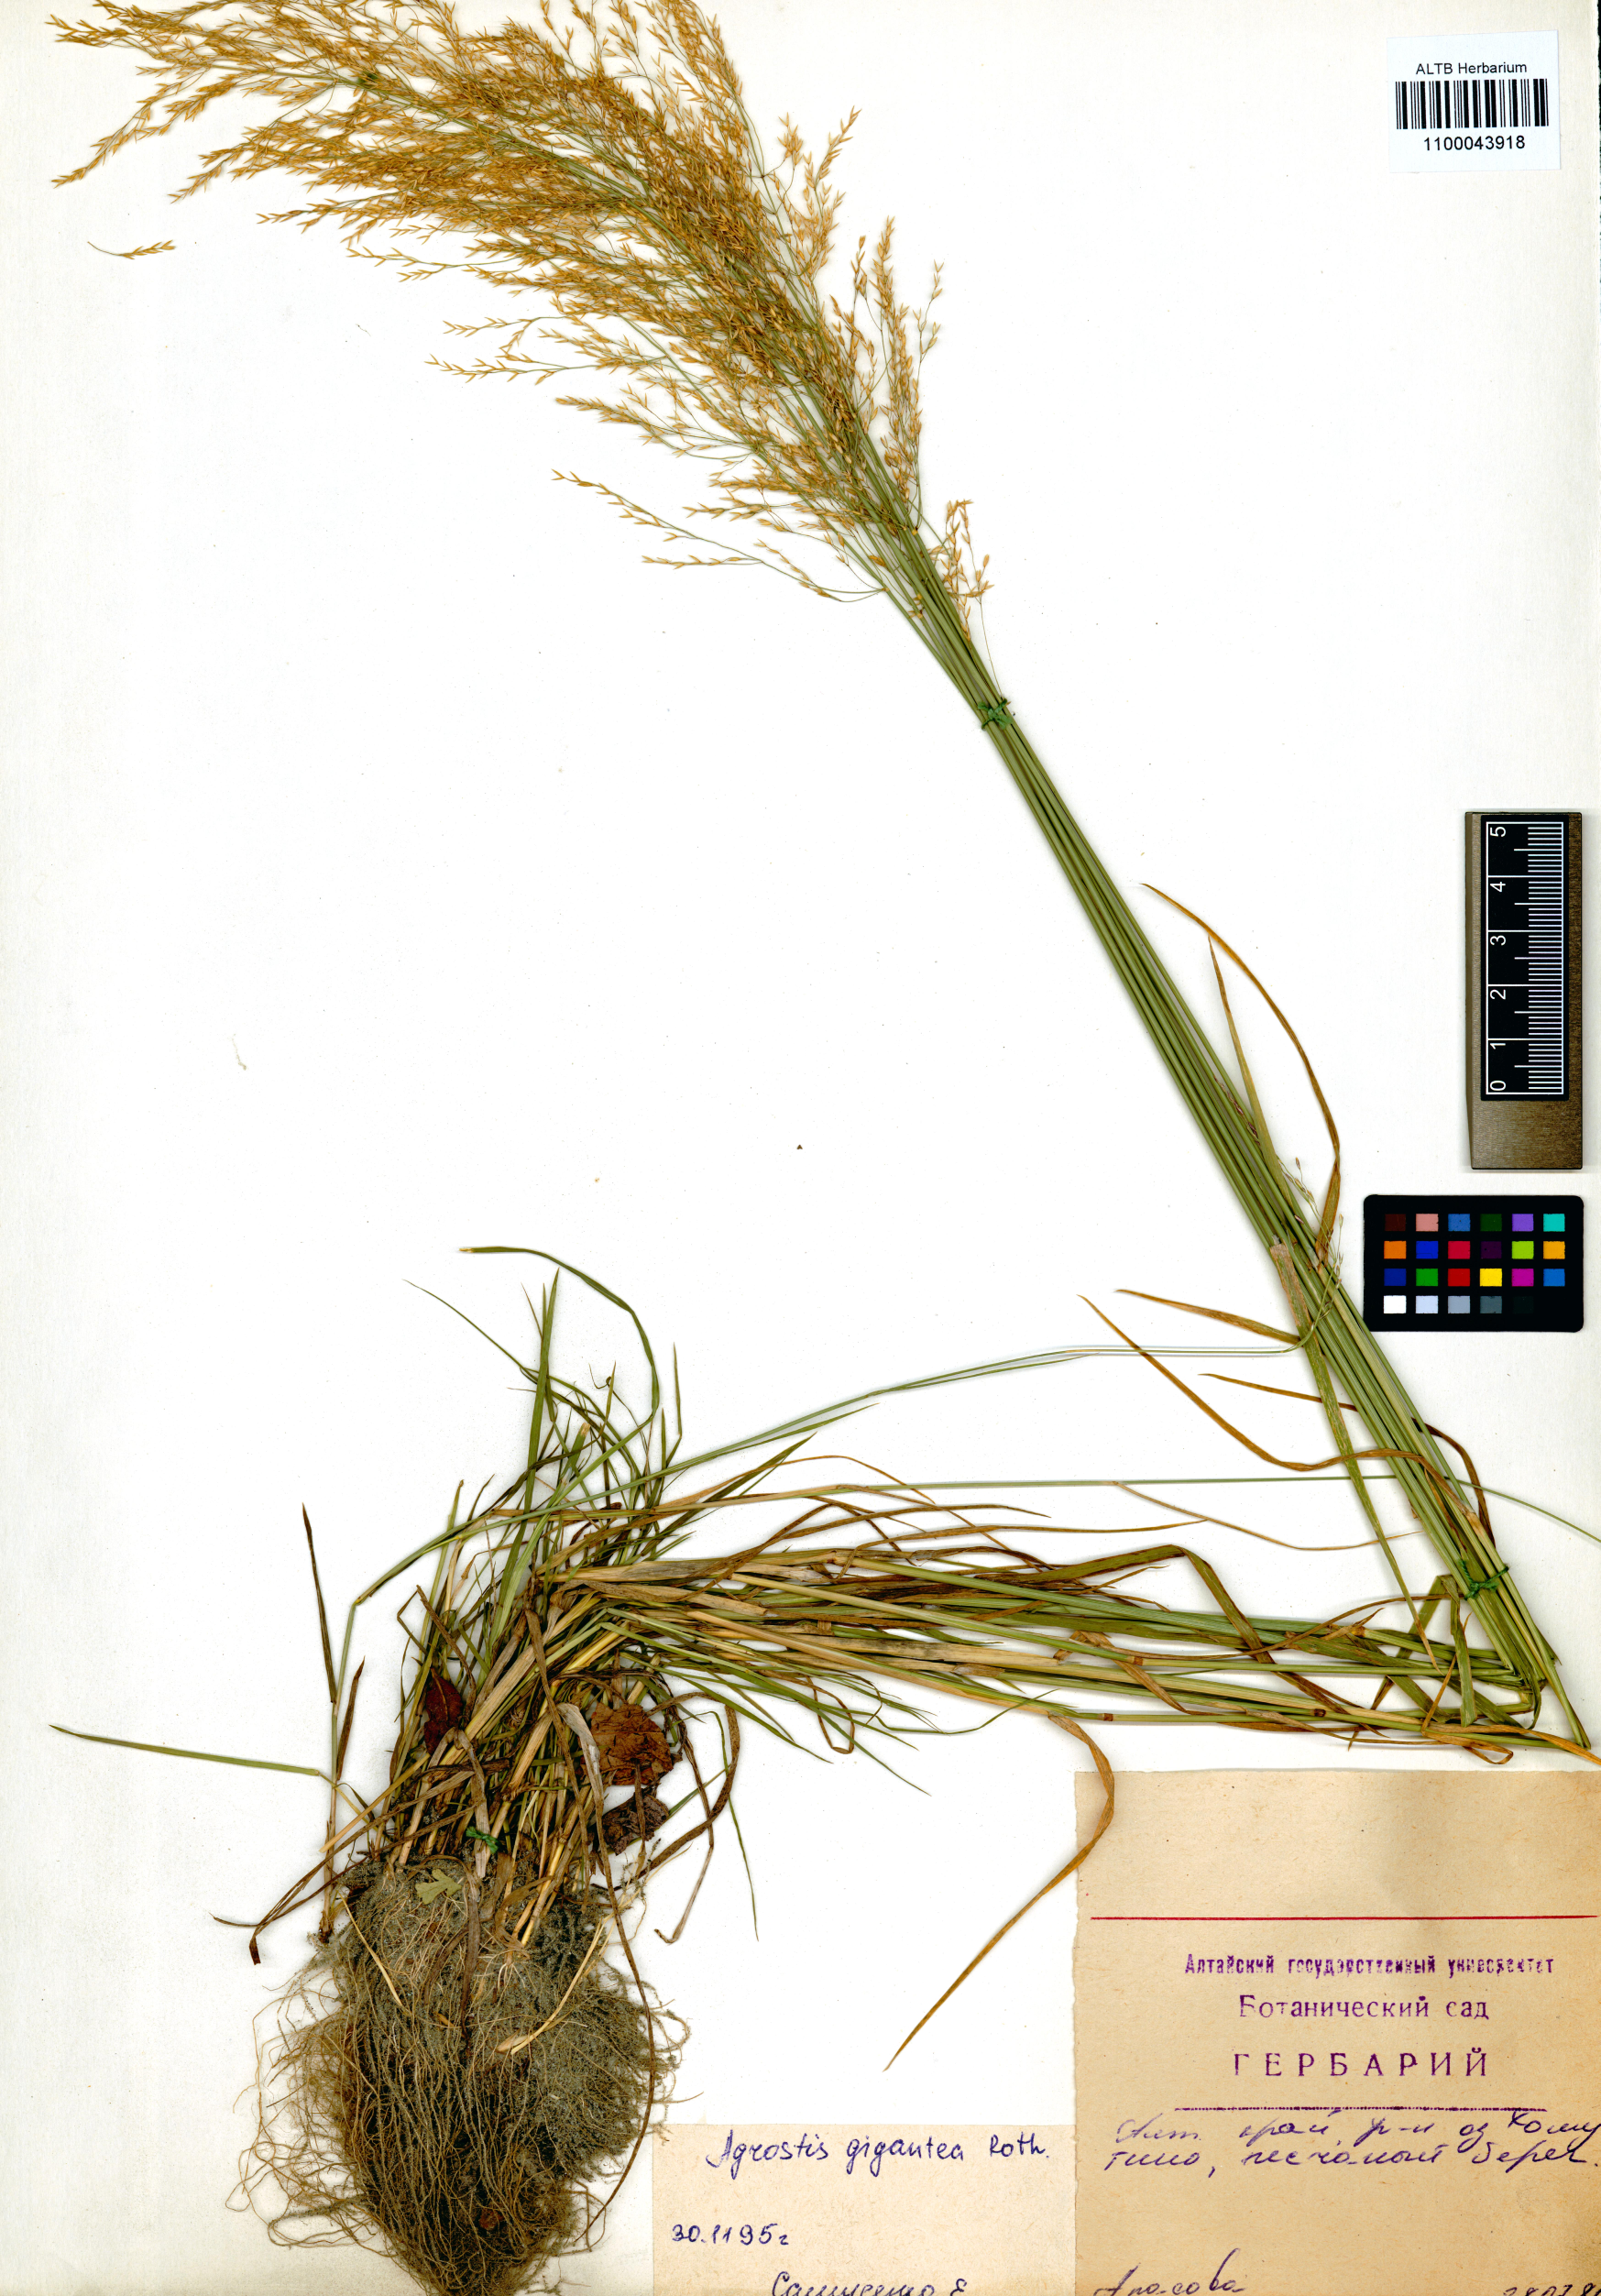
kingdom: Plantae
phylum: Tracheophyta
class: Liliopsida
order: Poales
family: Poaceae
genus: Agrostis
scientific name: Agrostis gigantea
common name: Black bent
